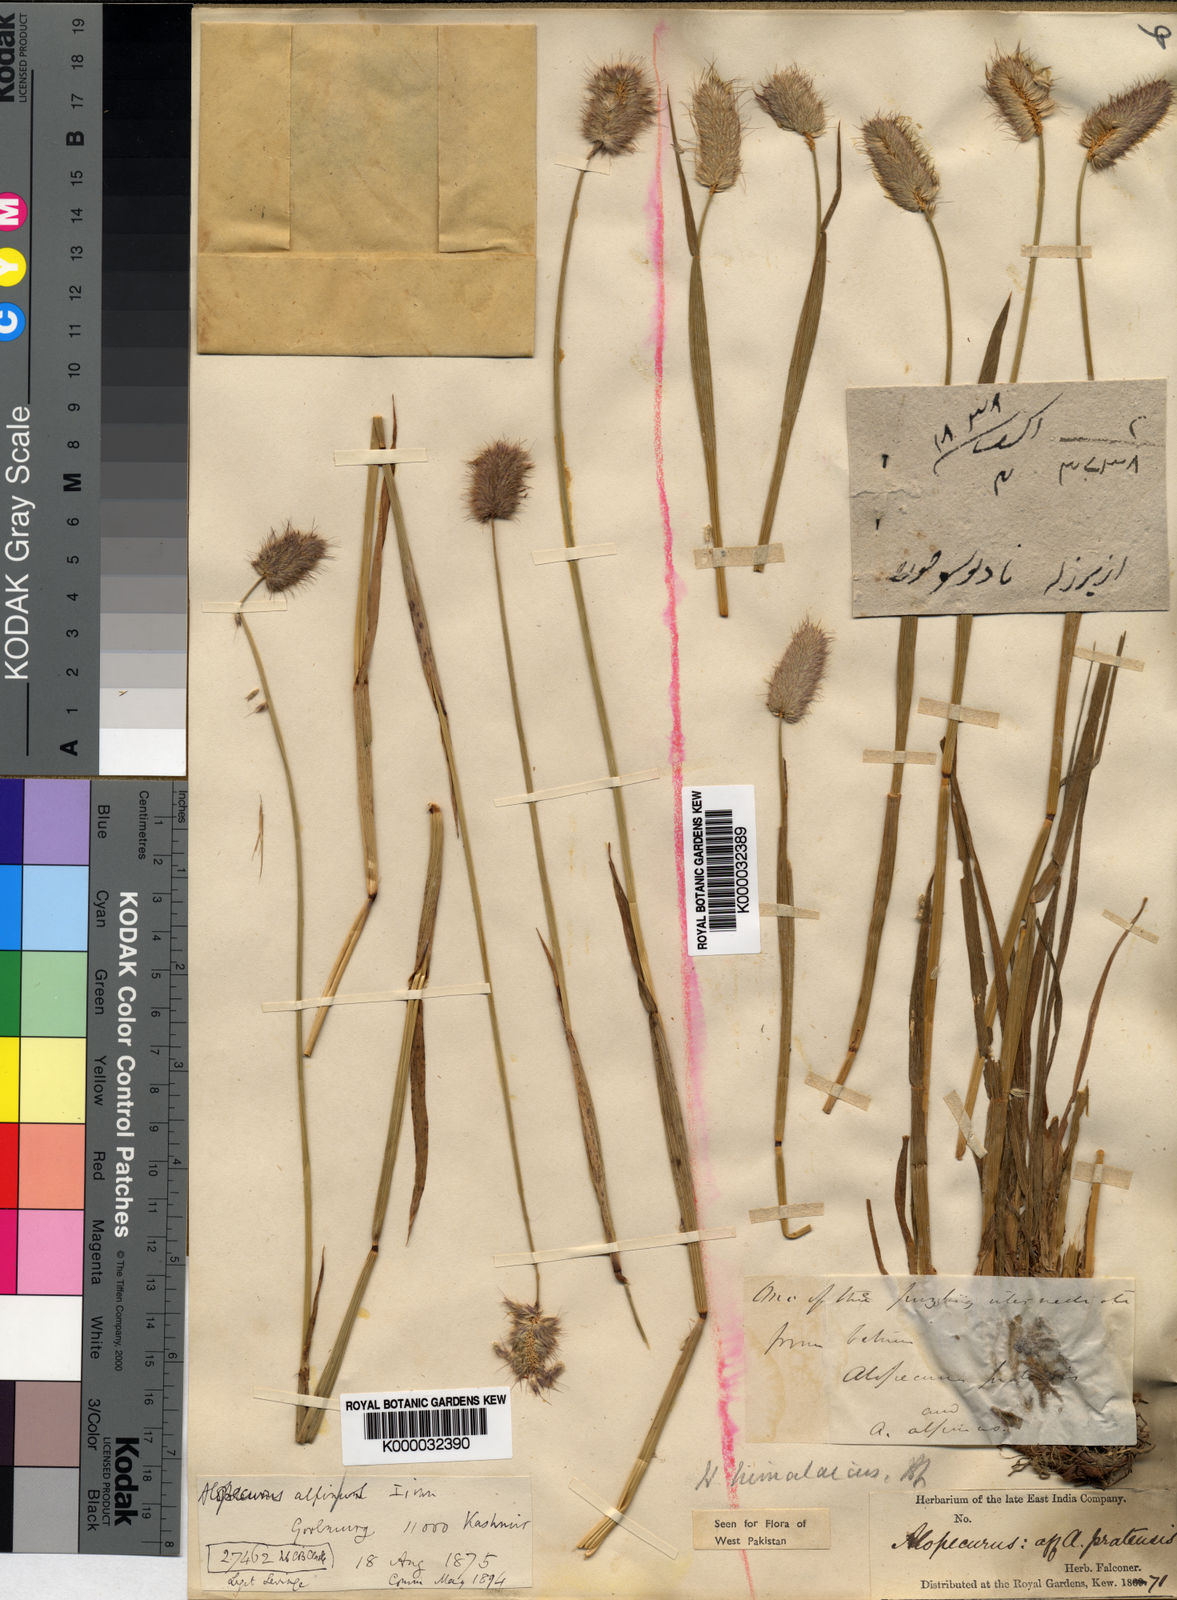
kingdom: Plantae
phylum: Tracheophyta
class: Liliopsida
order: Poales
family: Poaceae
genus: Alopecurus
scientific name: Alopecurus himalaicus
